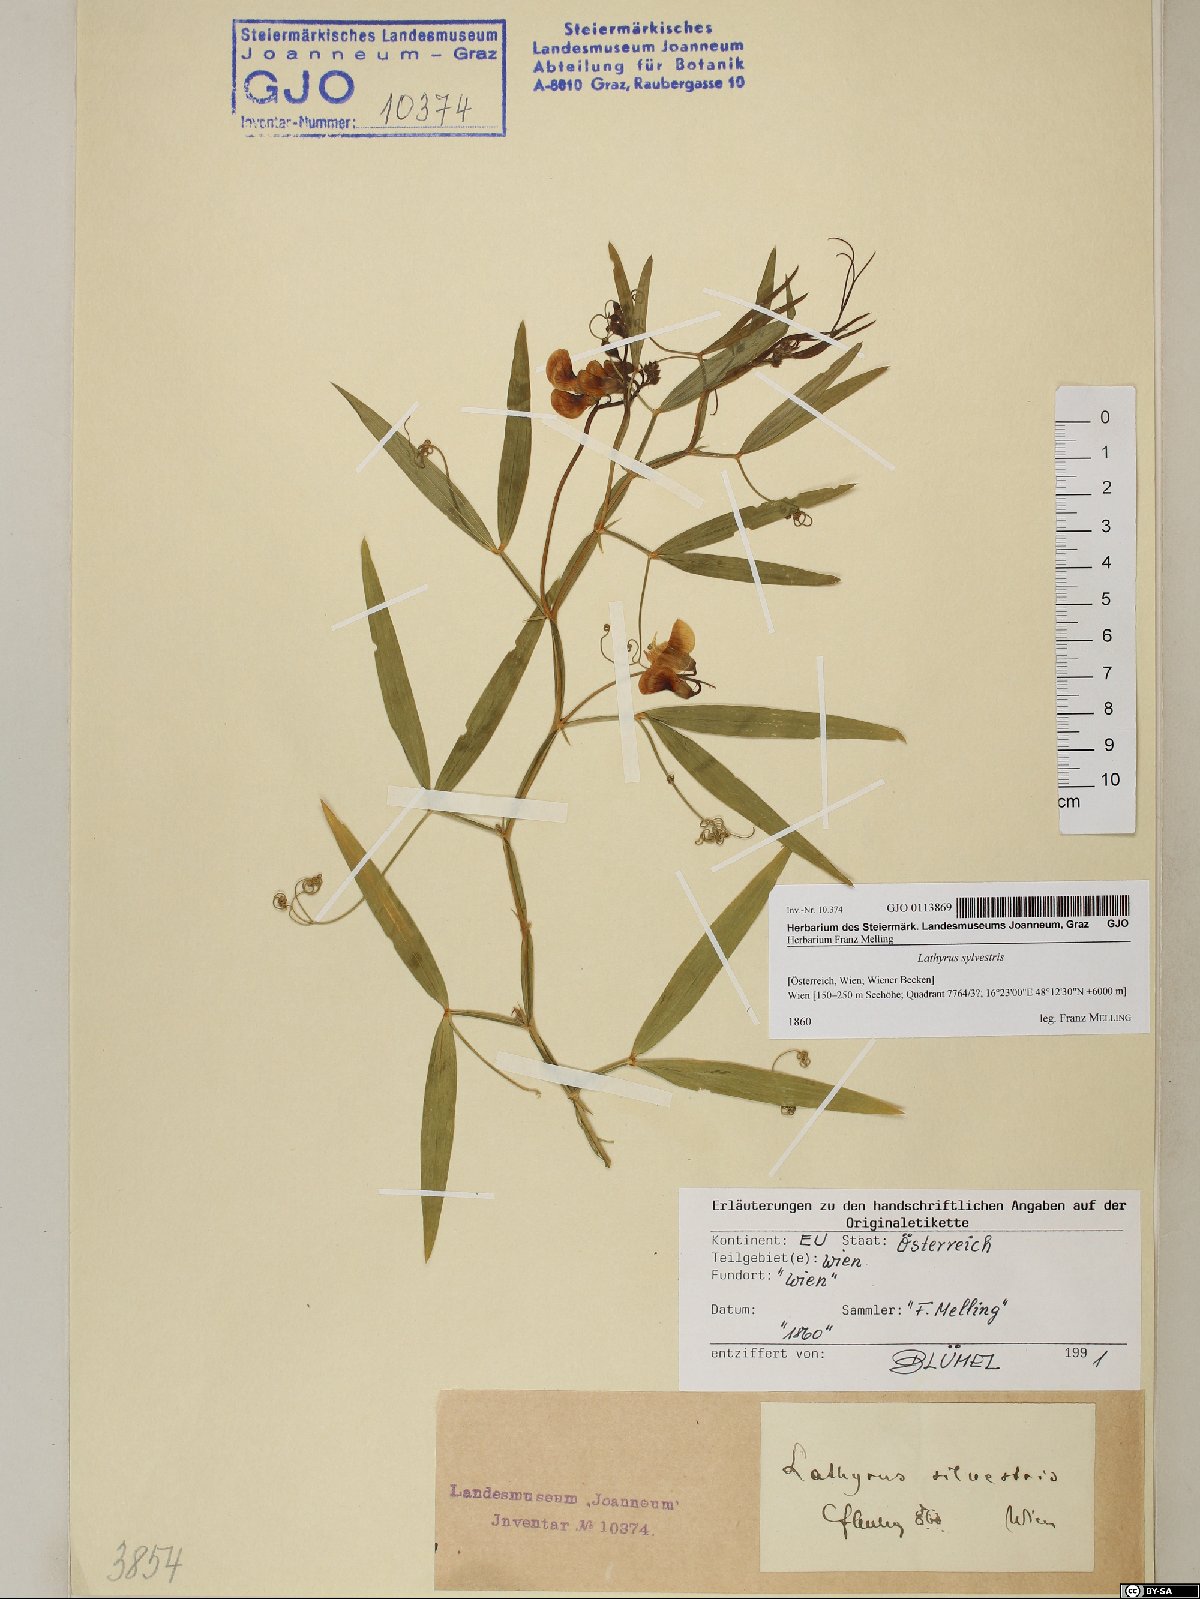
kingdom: Plantae
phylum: Tracheophyta
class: Magnoliopsida
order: Fabales
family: Fabaceae
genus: Lathyrus
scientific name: Lathyrus sylvestris
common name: Flat pea
